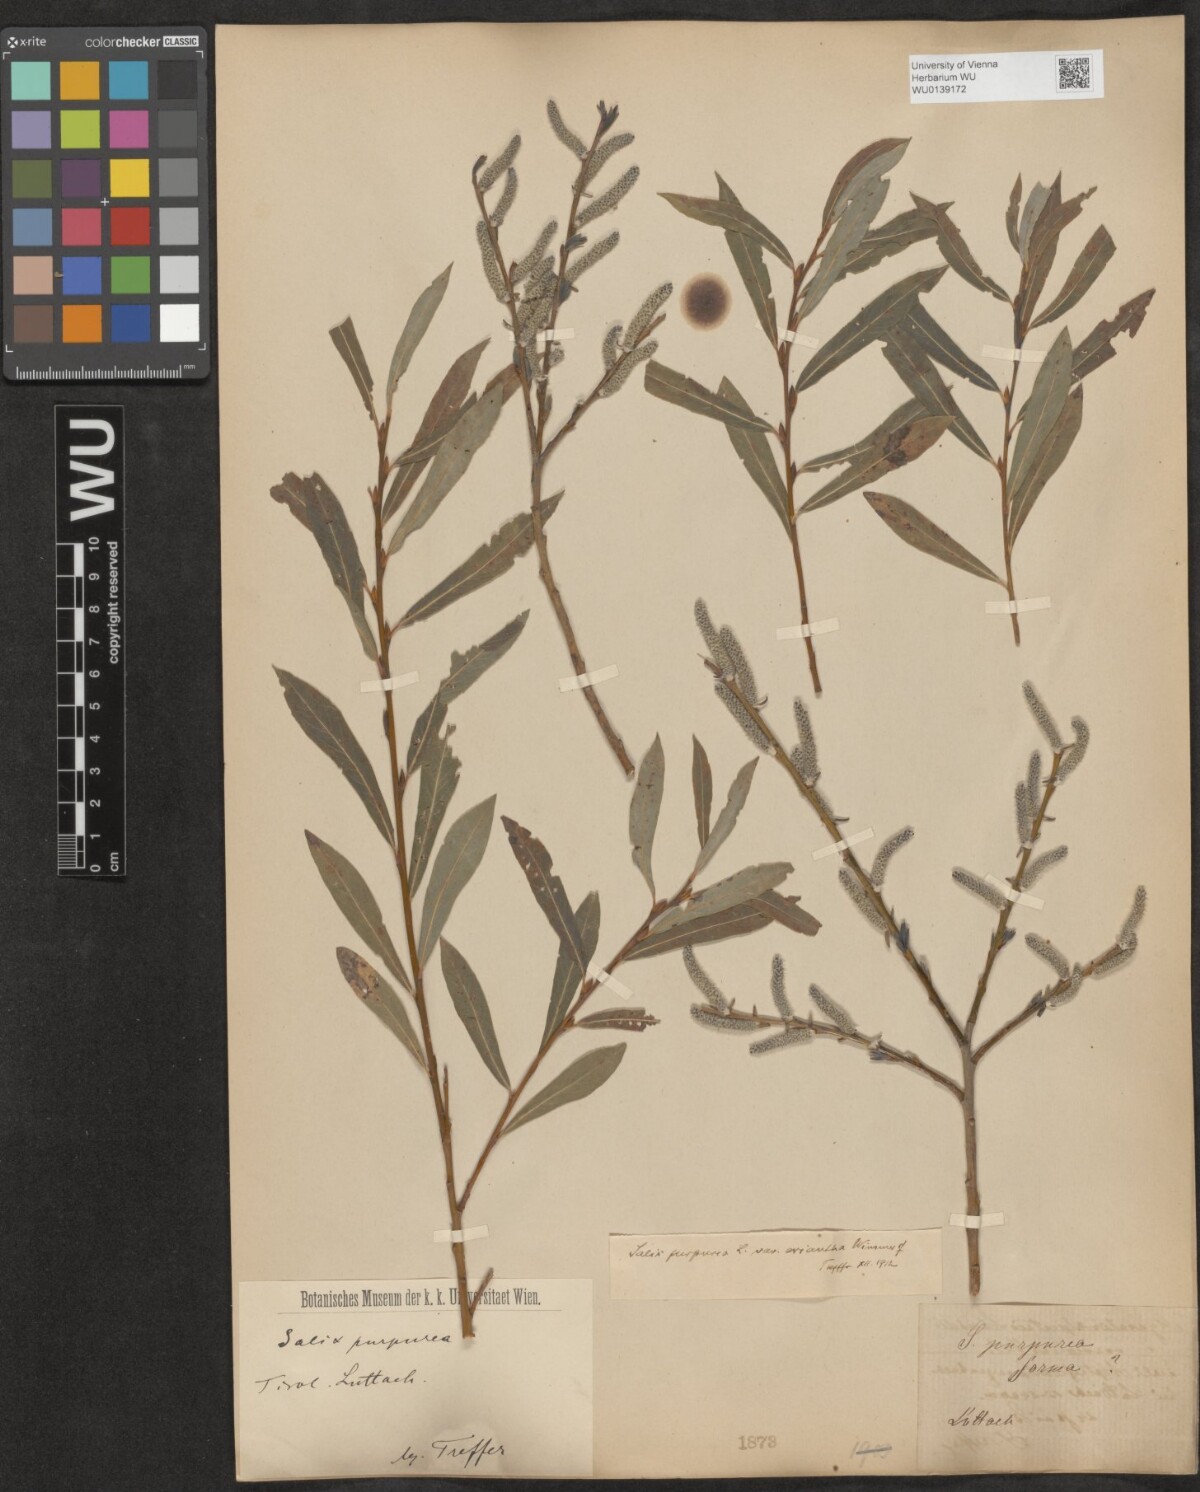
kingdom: Plantae
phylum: Tracheophyta
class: Magnoliopsida
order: Malpighiales
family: Salicaceae
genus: Salix
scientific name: Salix purpurea
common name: Purple willow
